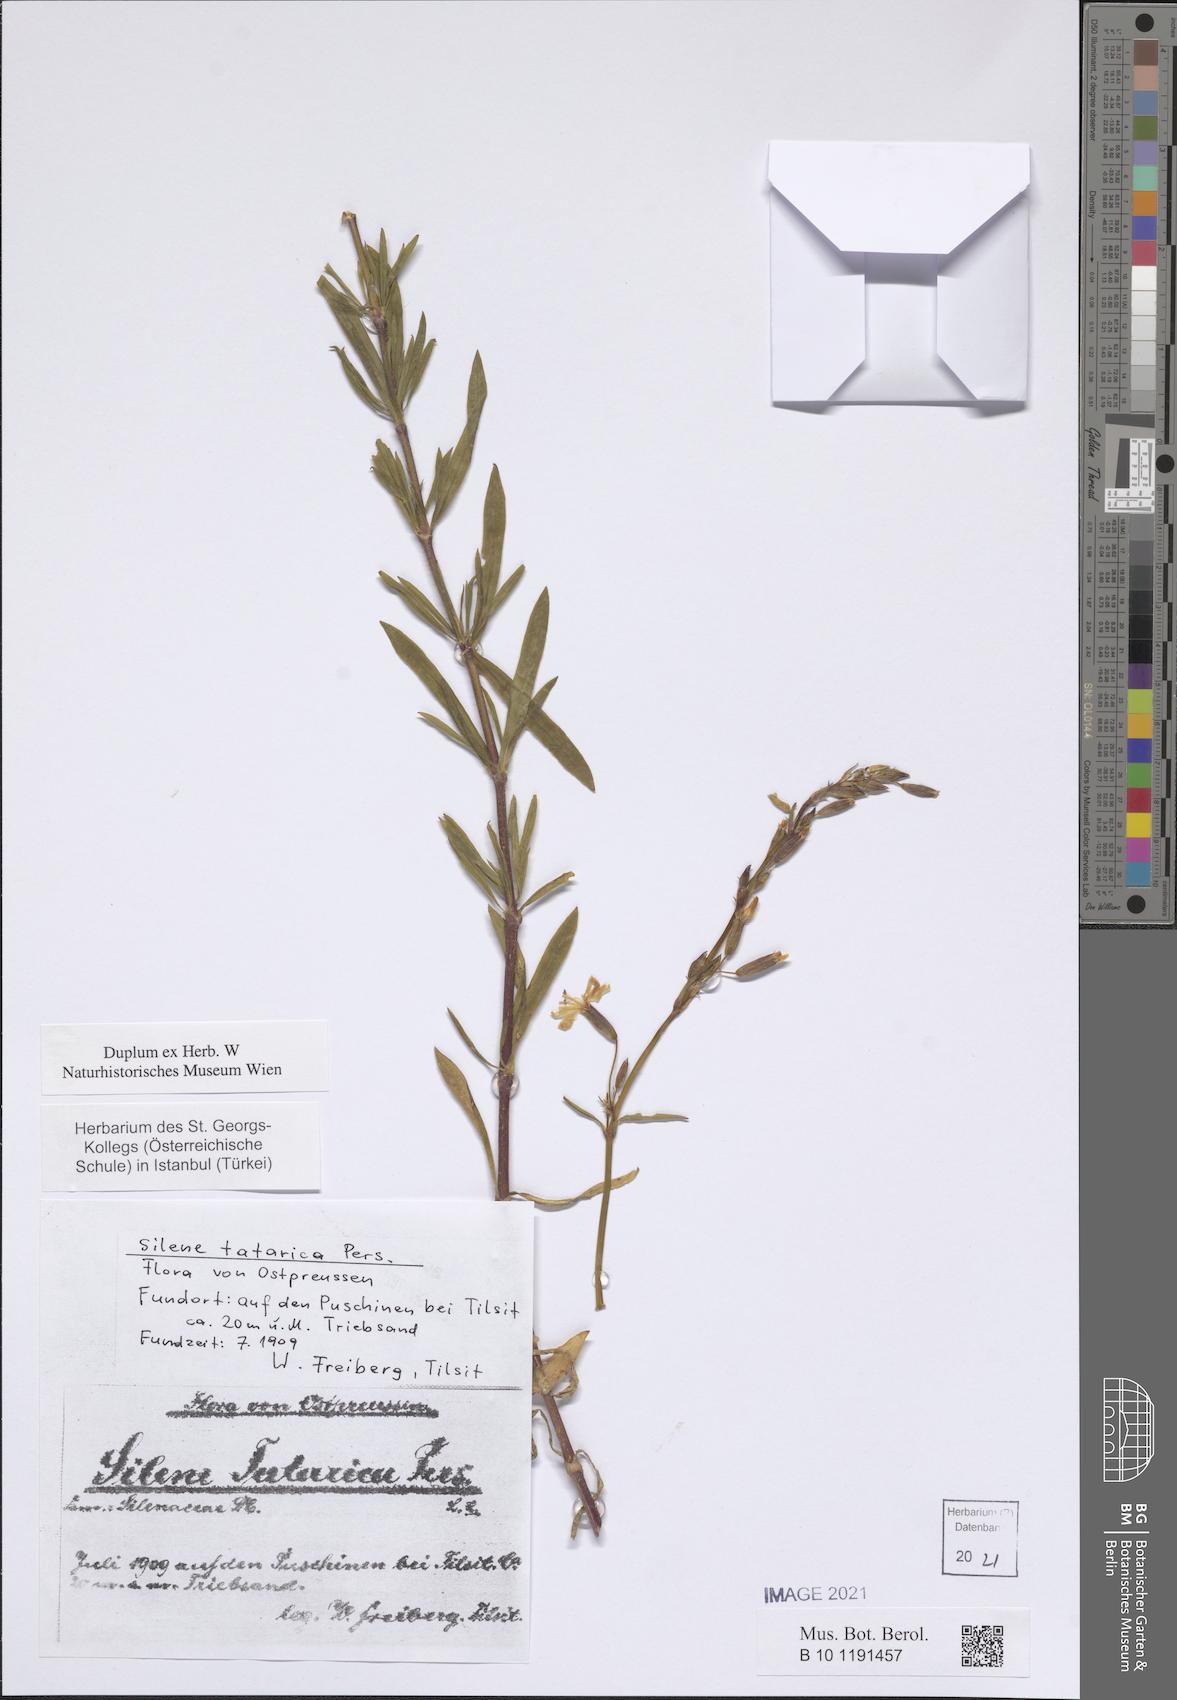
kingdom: Plantae
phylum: Tracheophyta
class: Magnoliopsida
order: Caryophyllales
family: Caryophyllaceae
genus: Silene
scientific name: Silene tatarica
